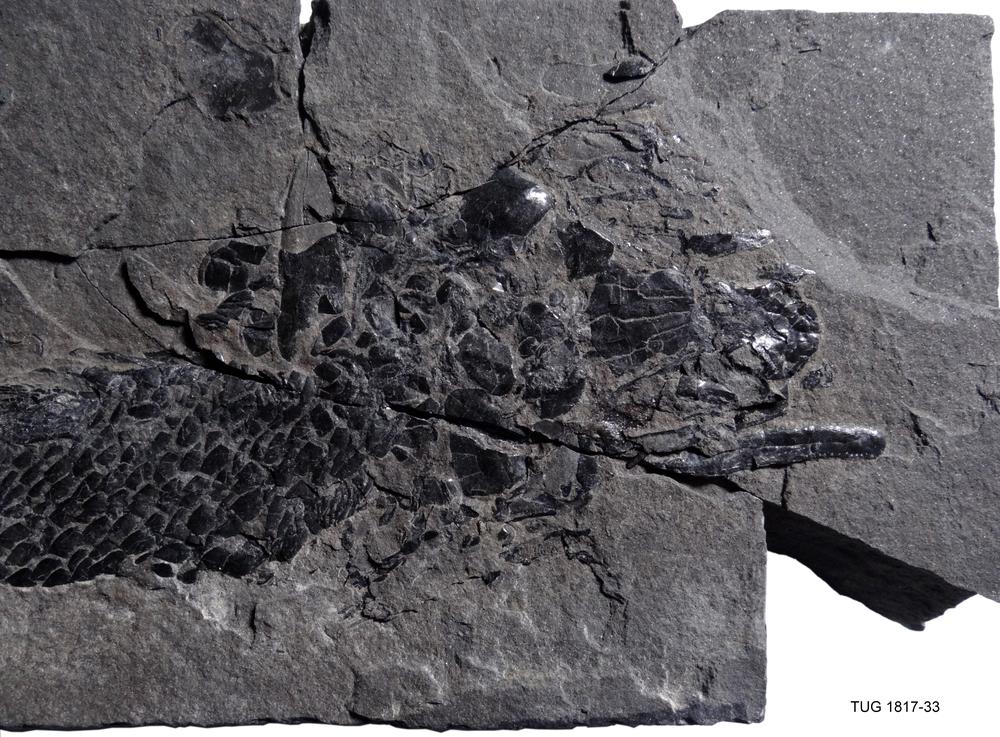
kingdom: Animalia
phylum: Chordata
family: Osteolepididae
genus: Osteolepis
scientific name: Osteolepis macrolepidotus
